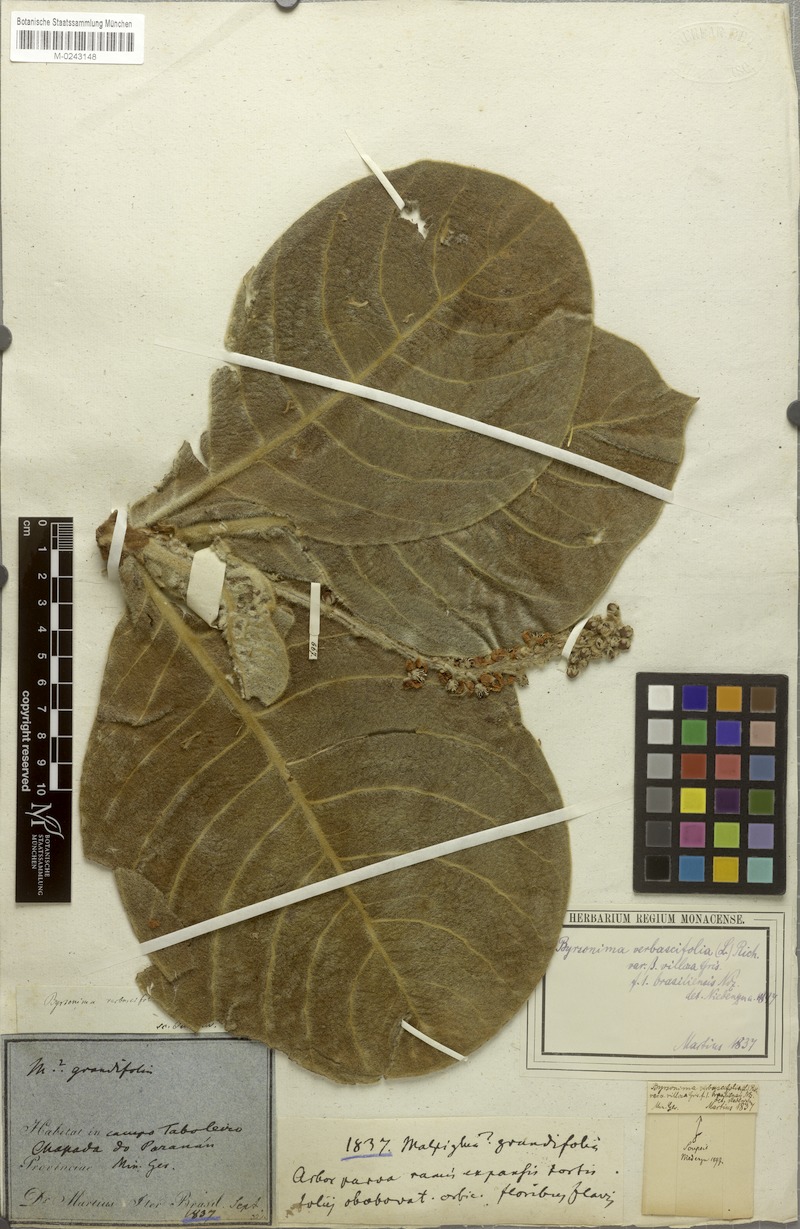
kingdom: Plantae
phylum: Tracheophyta
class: Magnoliopsida
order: Malpighiales
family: Malpighiaceae
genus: Byrsonima
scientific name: Byrsonima verbascifolia
